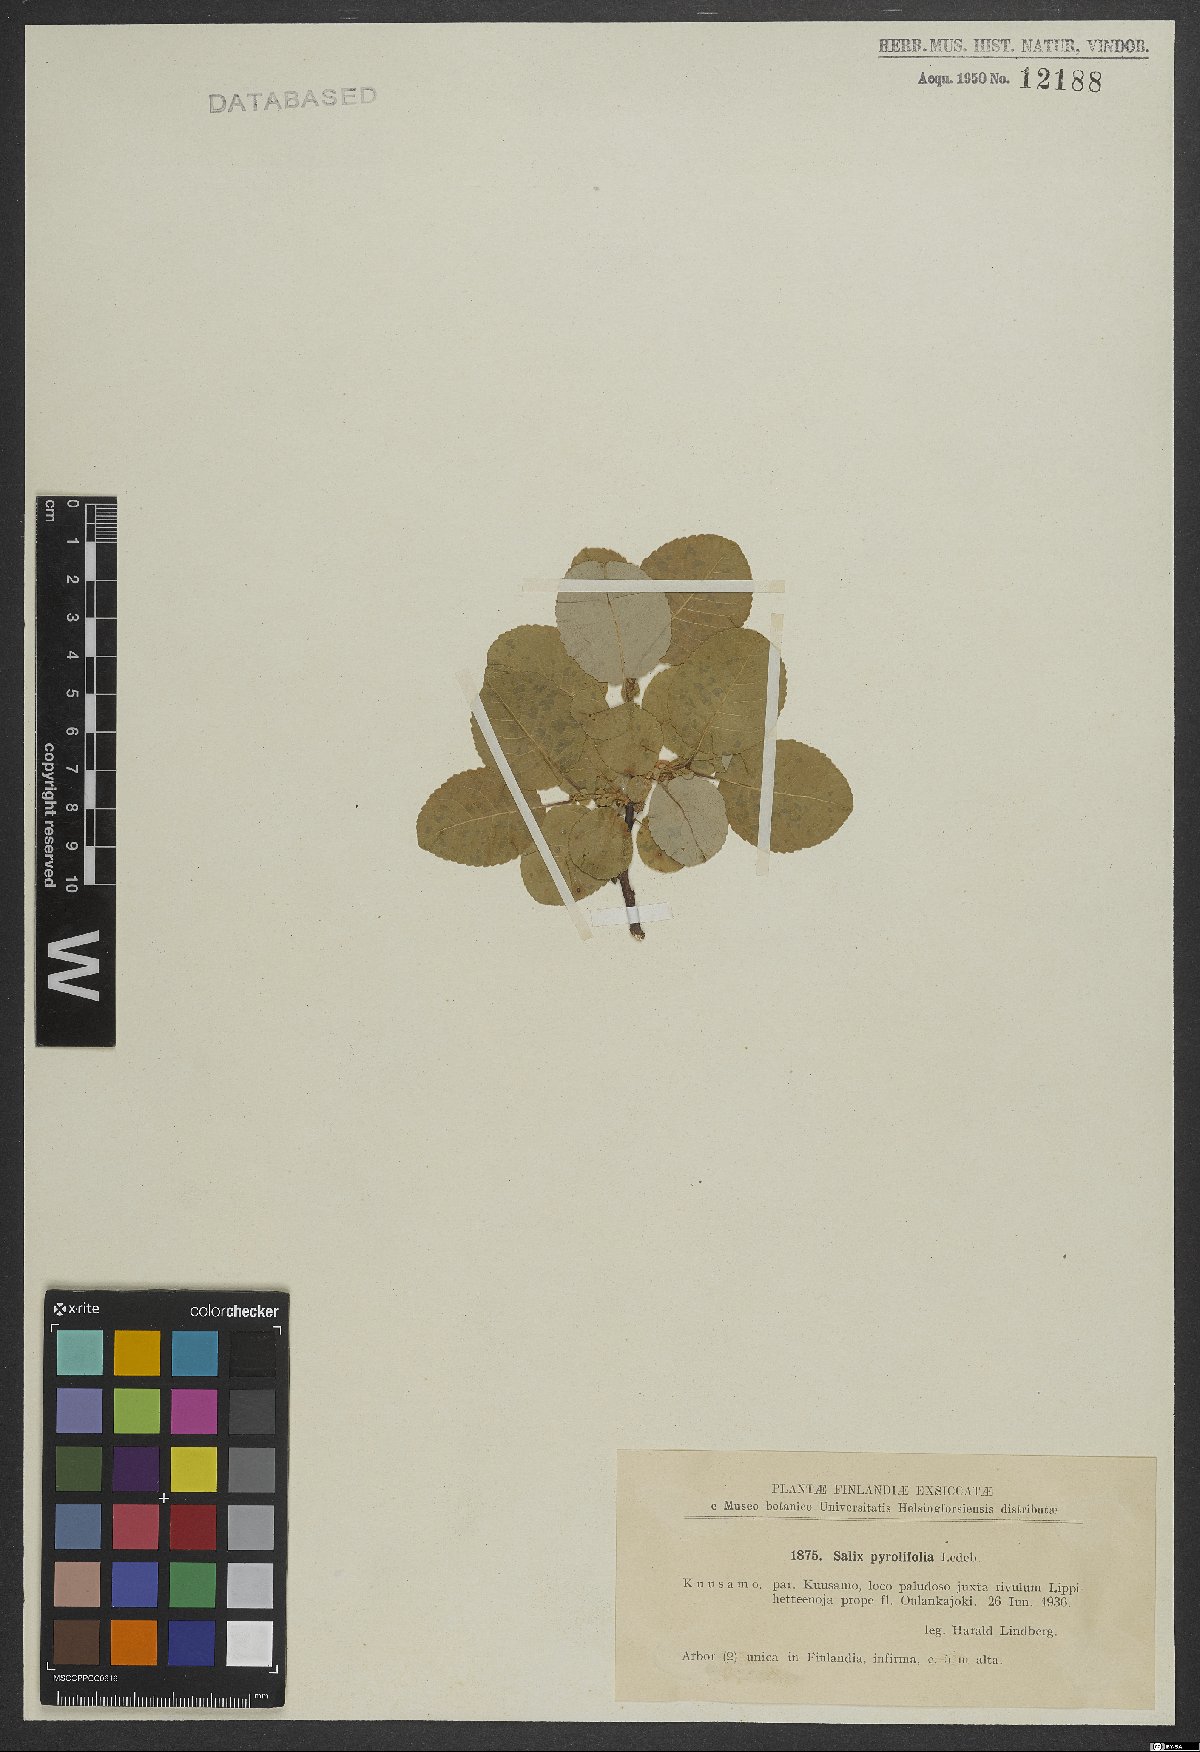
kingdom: Plantae
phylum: Tracheophyta
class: Magnoliopsida
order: Malpighiales
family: Salicaceae
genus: Salix
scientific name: Salix pyrolifolia
